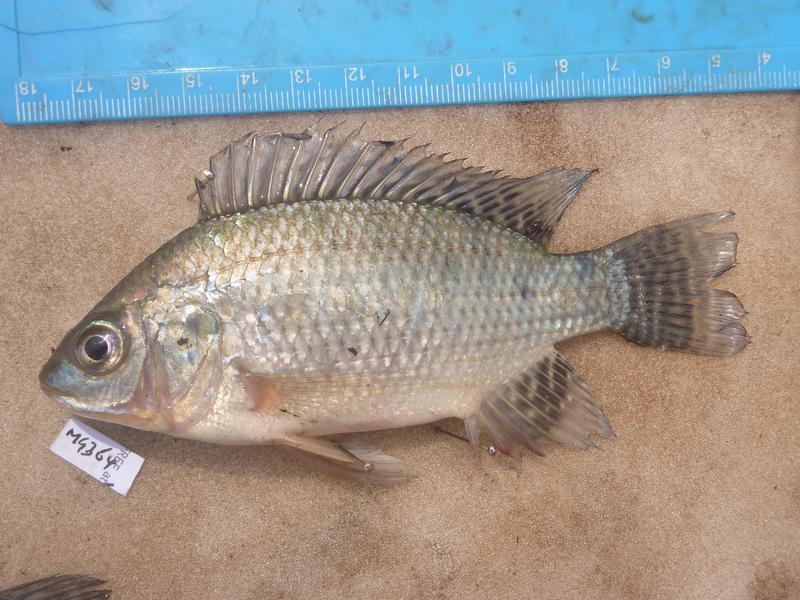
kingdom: Animalia
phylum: Chordata
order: Perciformes
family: Cichlidae
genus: Oreochromis
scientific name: Oreochromis niloticus
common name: Nile tilapia
